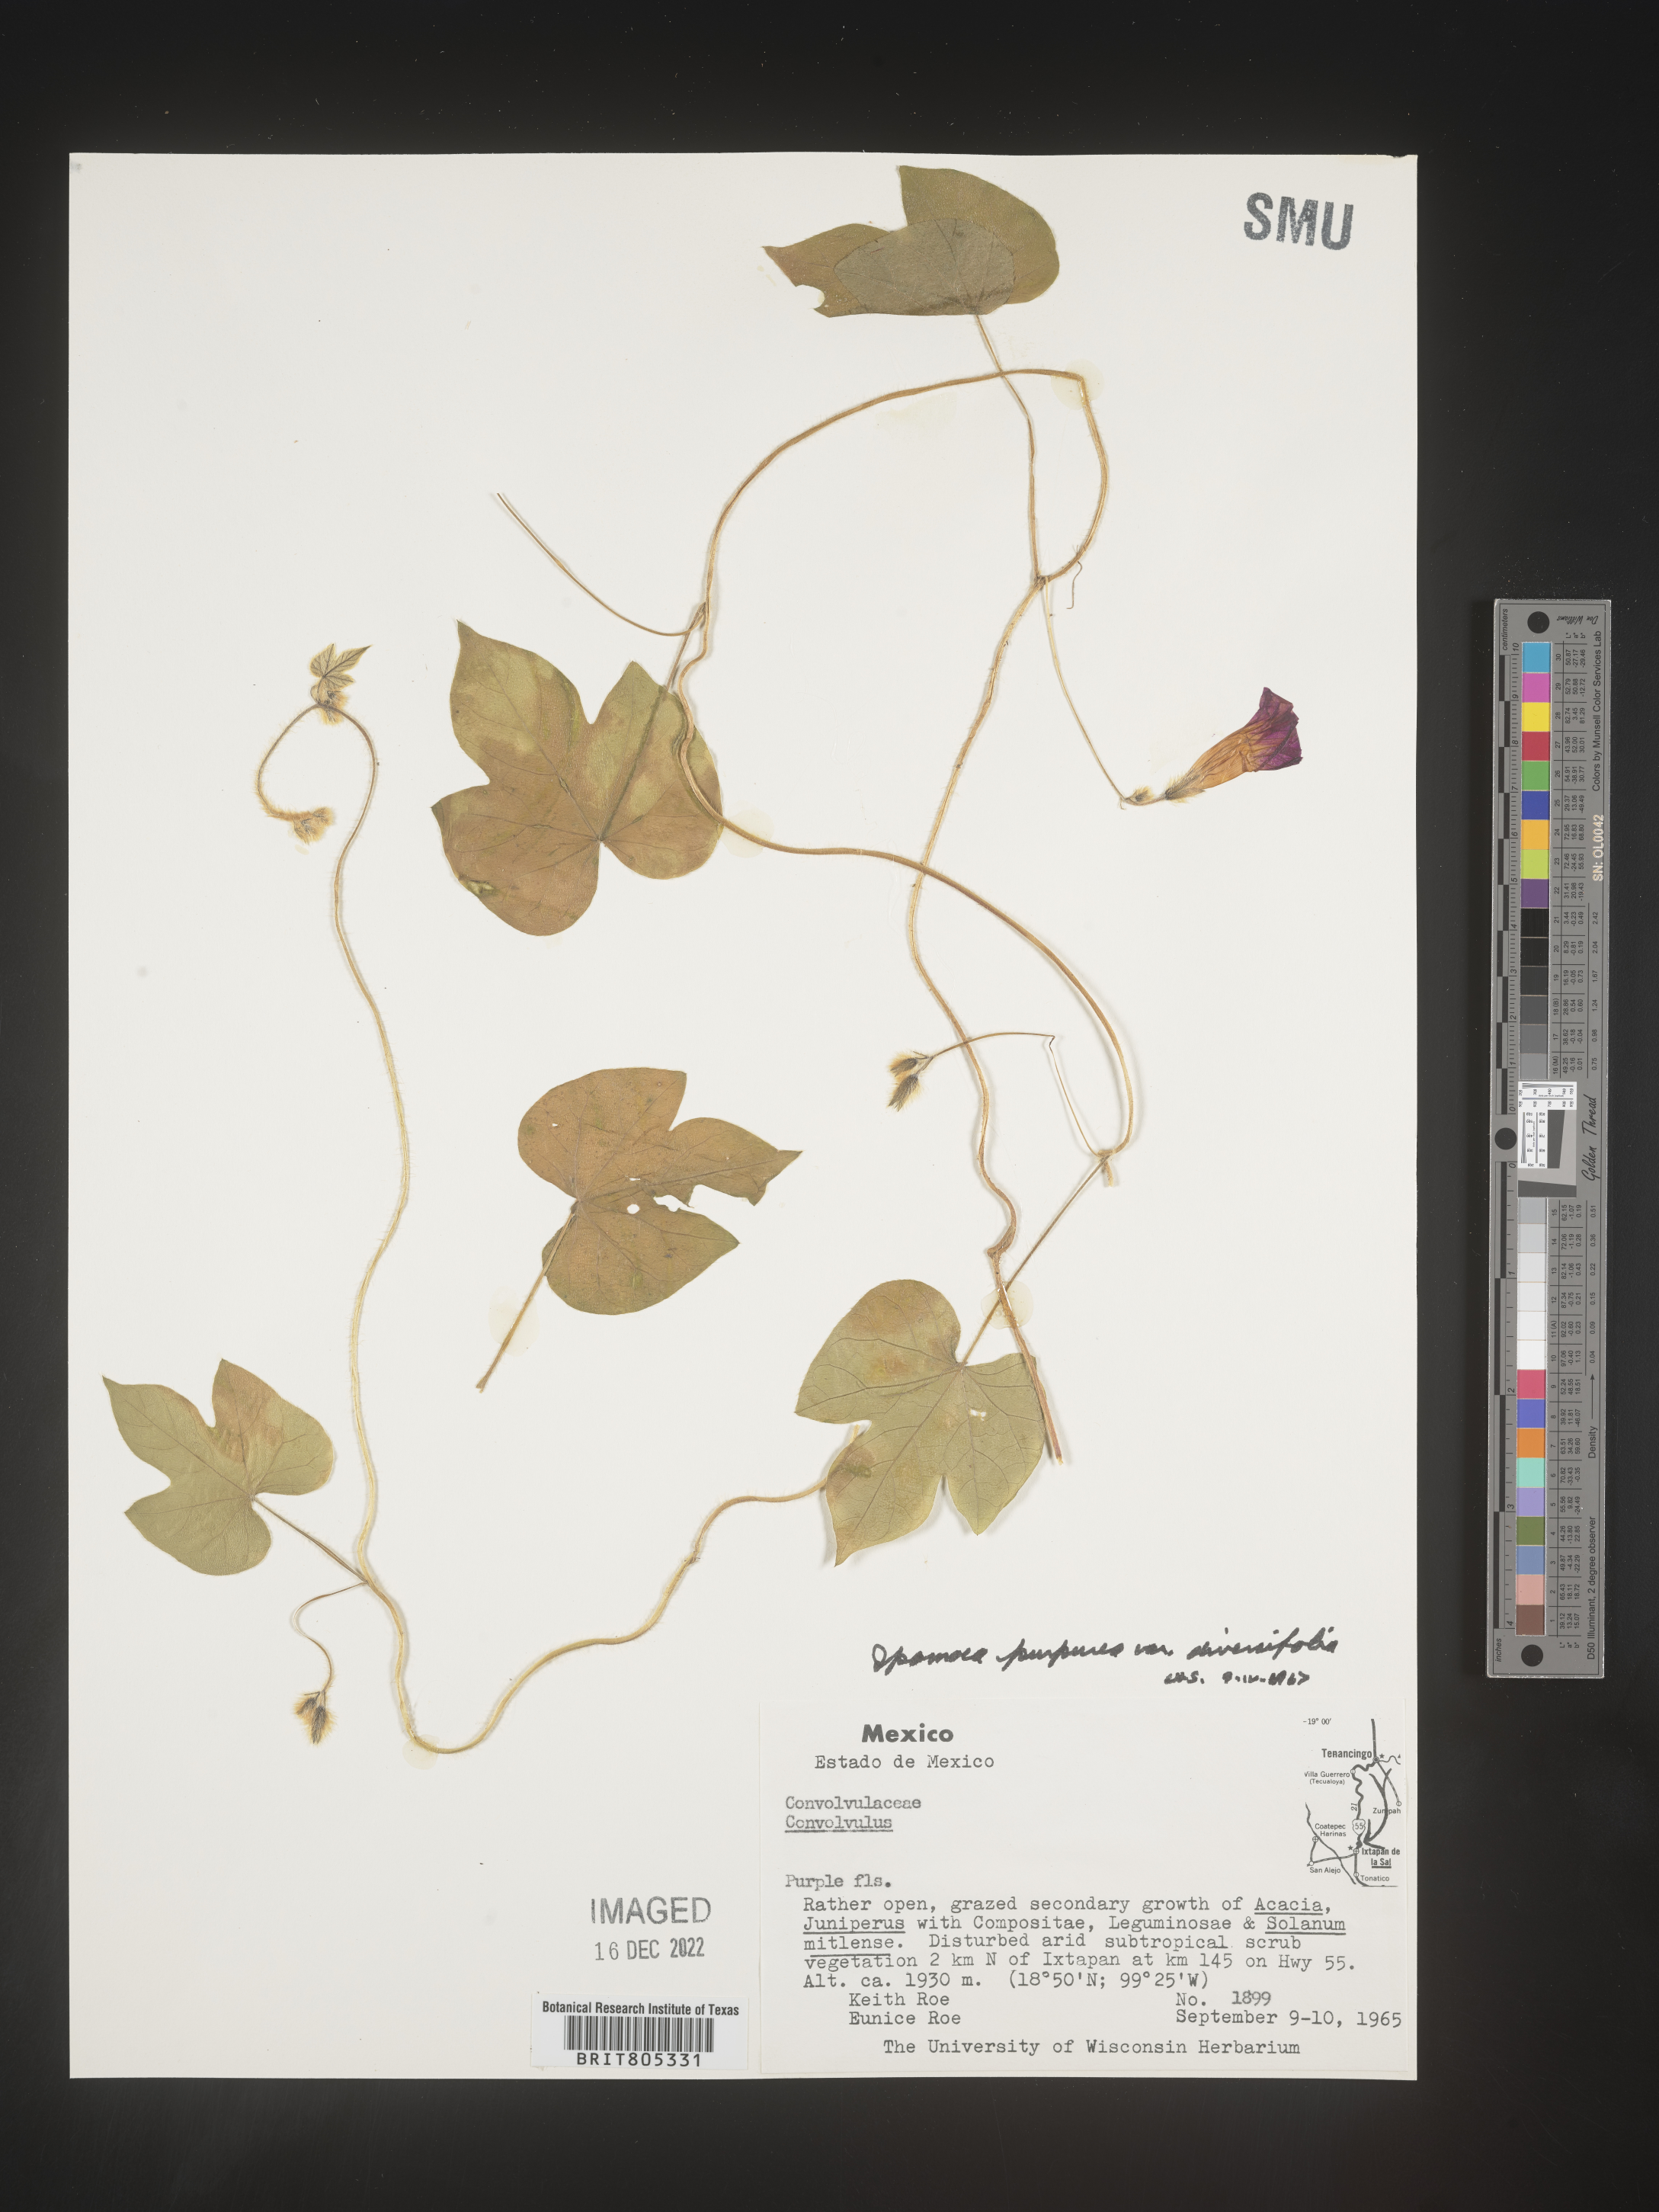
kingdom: Plantae
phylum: Tracheophyta
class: Magnoliopsida
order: Solanales
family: Convolvulaceae
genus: Ipomoea
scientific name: Ipomoea
